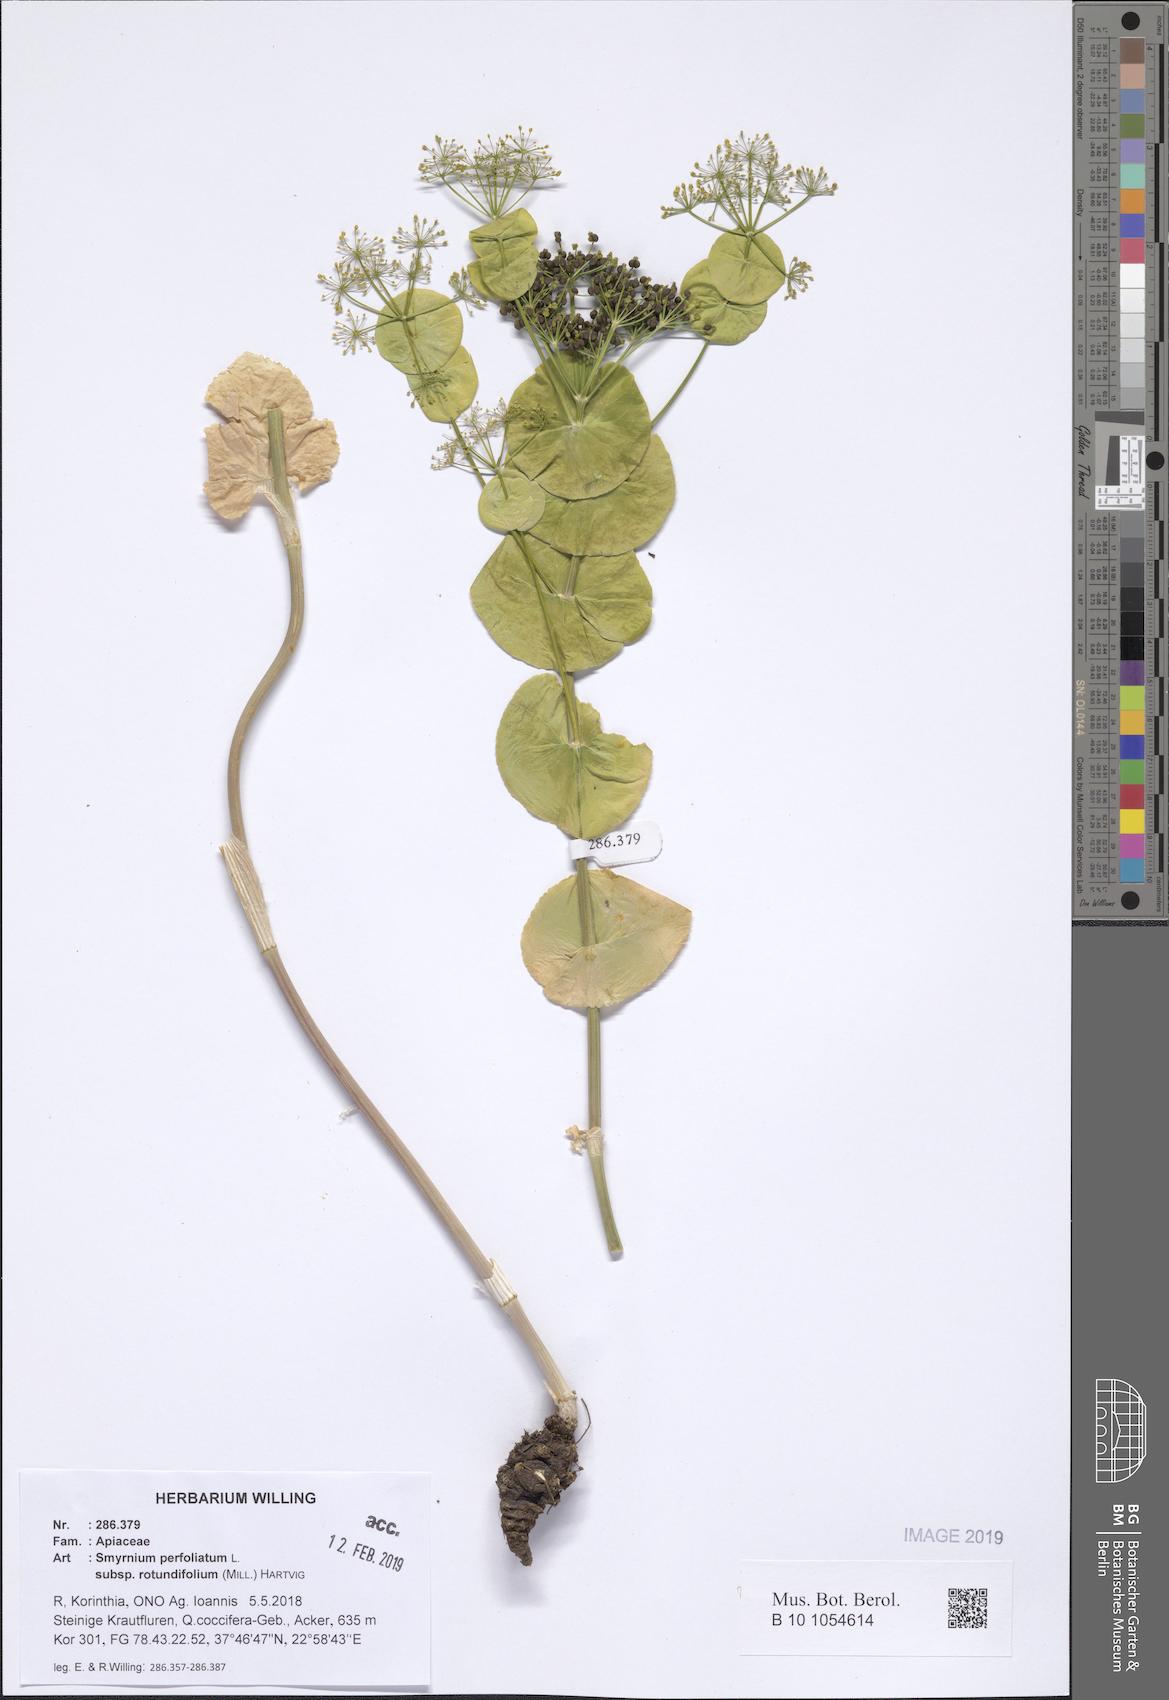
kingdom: Plantae
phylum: Tracheophyta
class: Magnoliopsida
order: Apiales
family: Apiaceae
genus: Smyrnium
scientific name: Smyrnium perfoliatum
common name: Perfoliate alexanders
